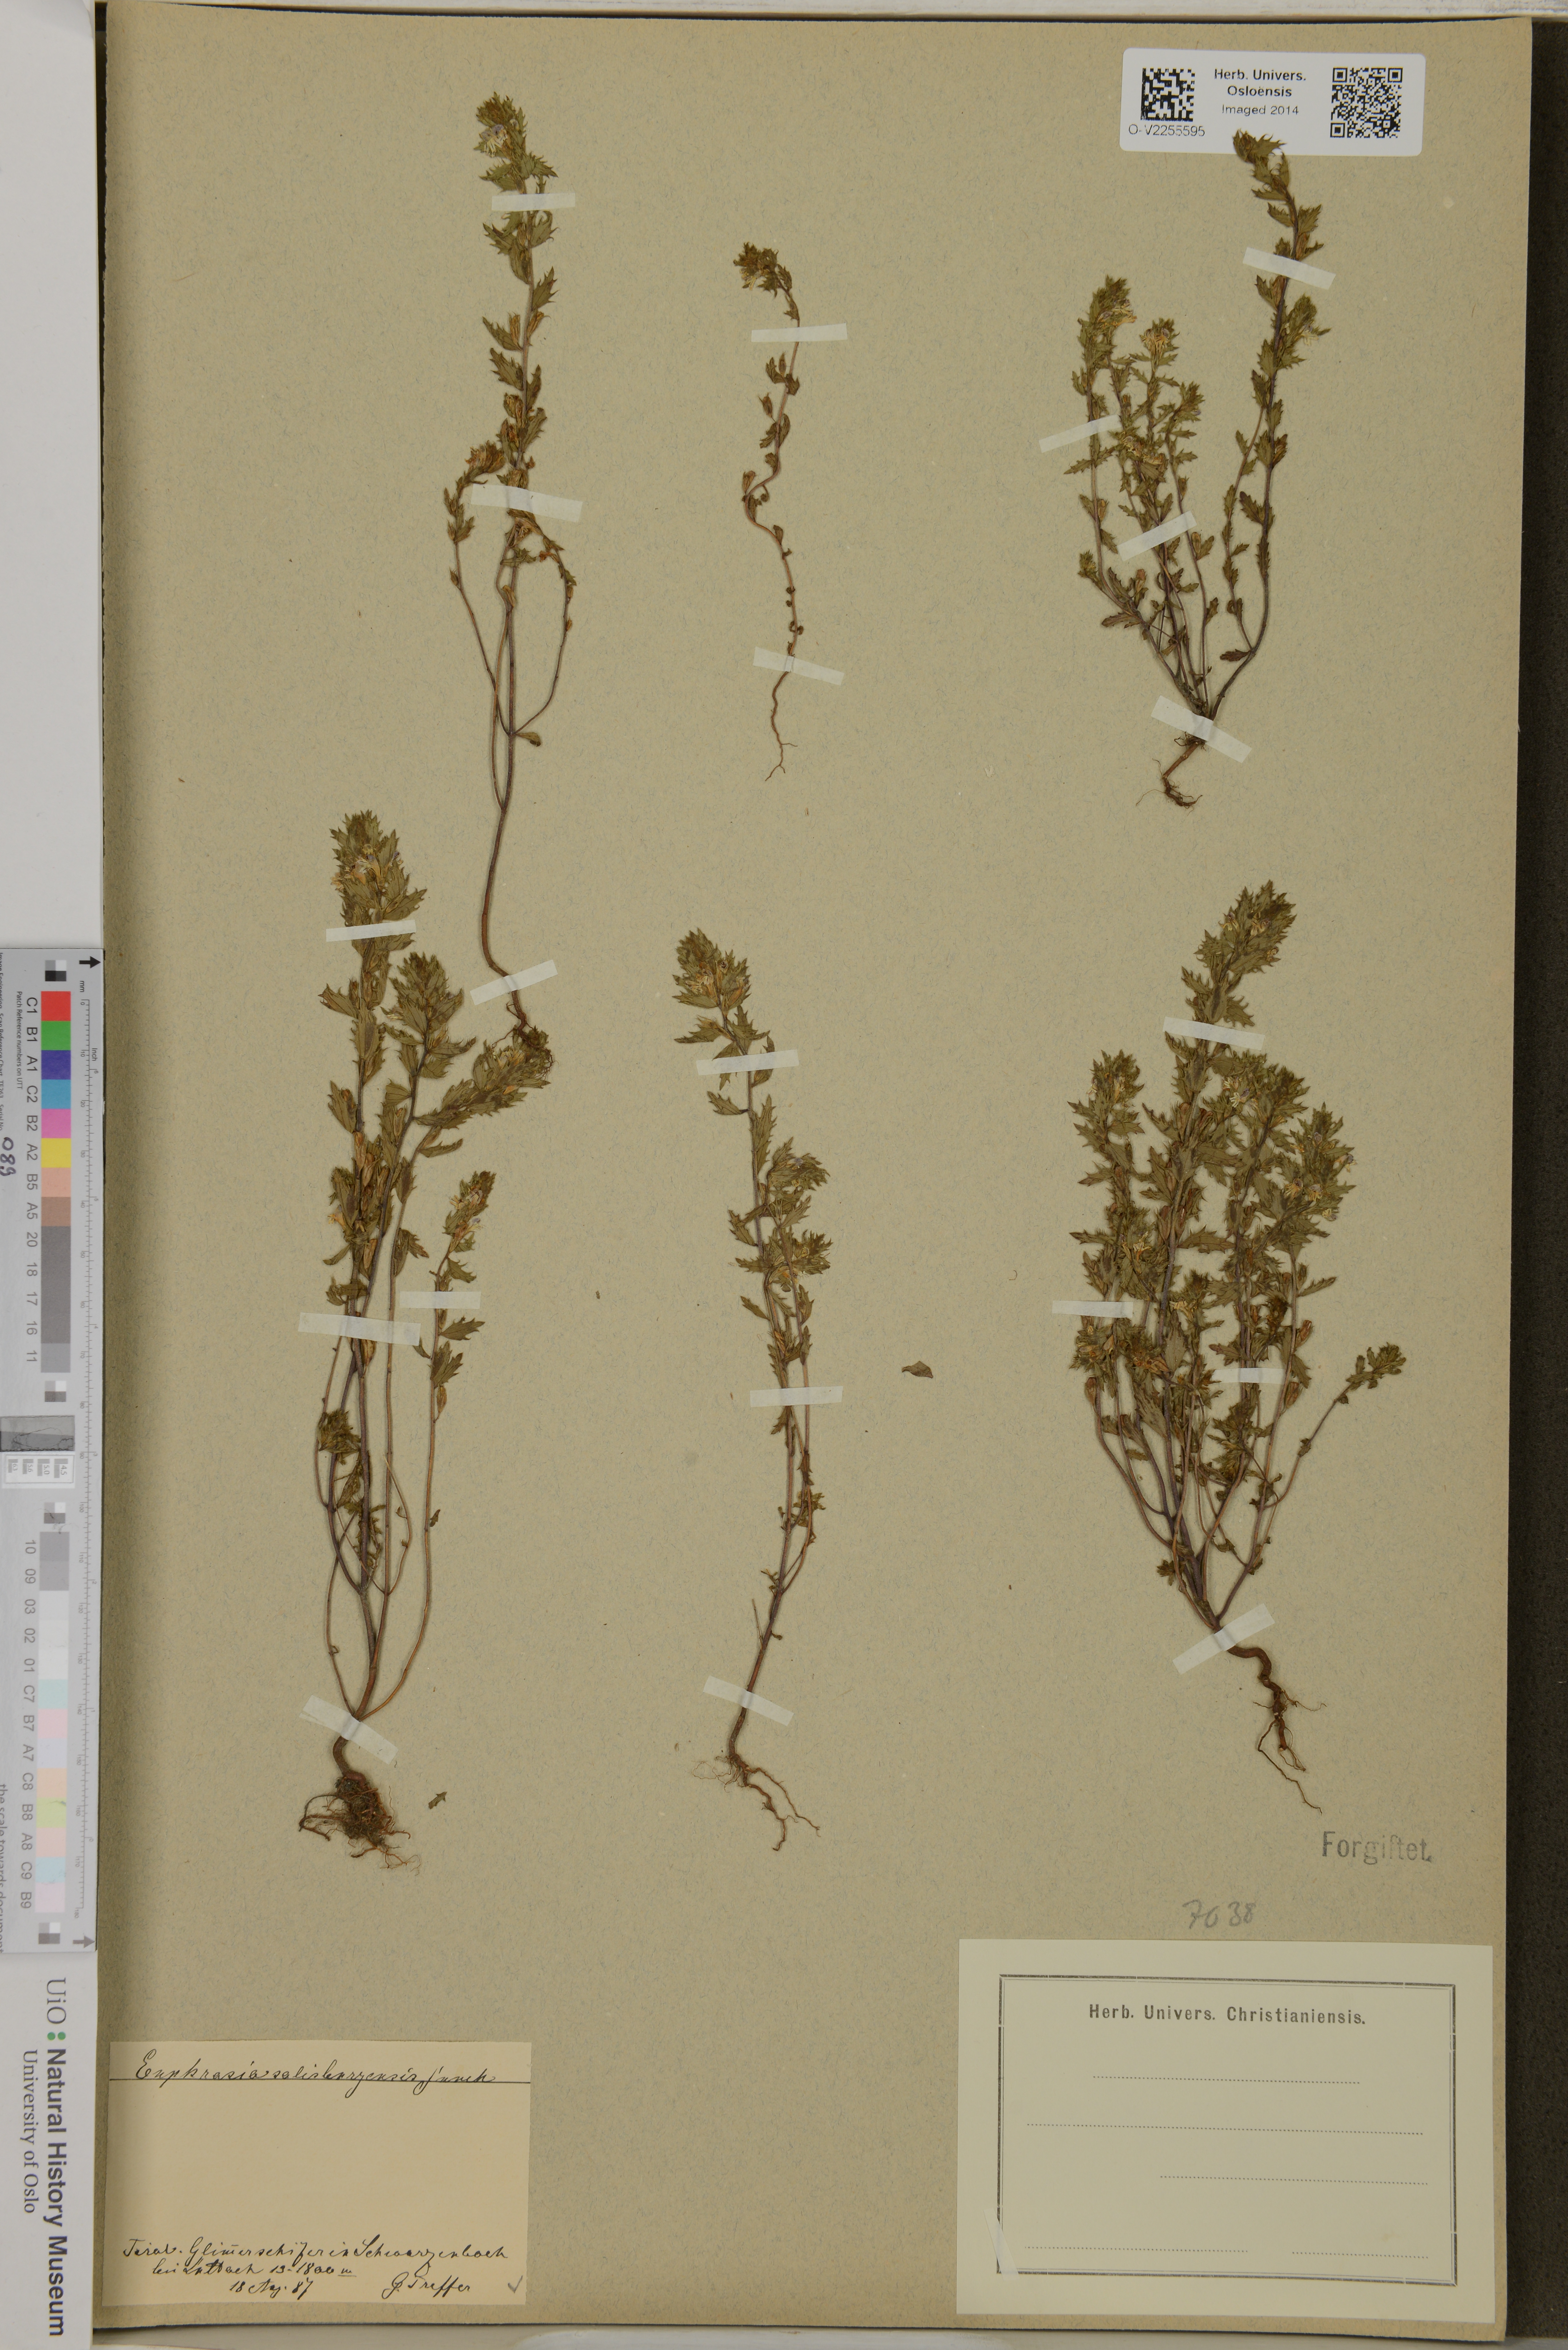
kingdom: Plantae
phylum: Tracheophyta
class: Magnoliopsida
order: Lamiales
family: Orobanchaceae
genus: Euphrasia
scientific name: Euphrasia salisburgensis
